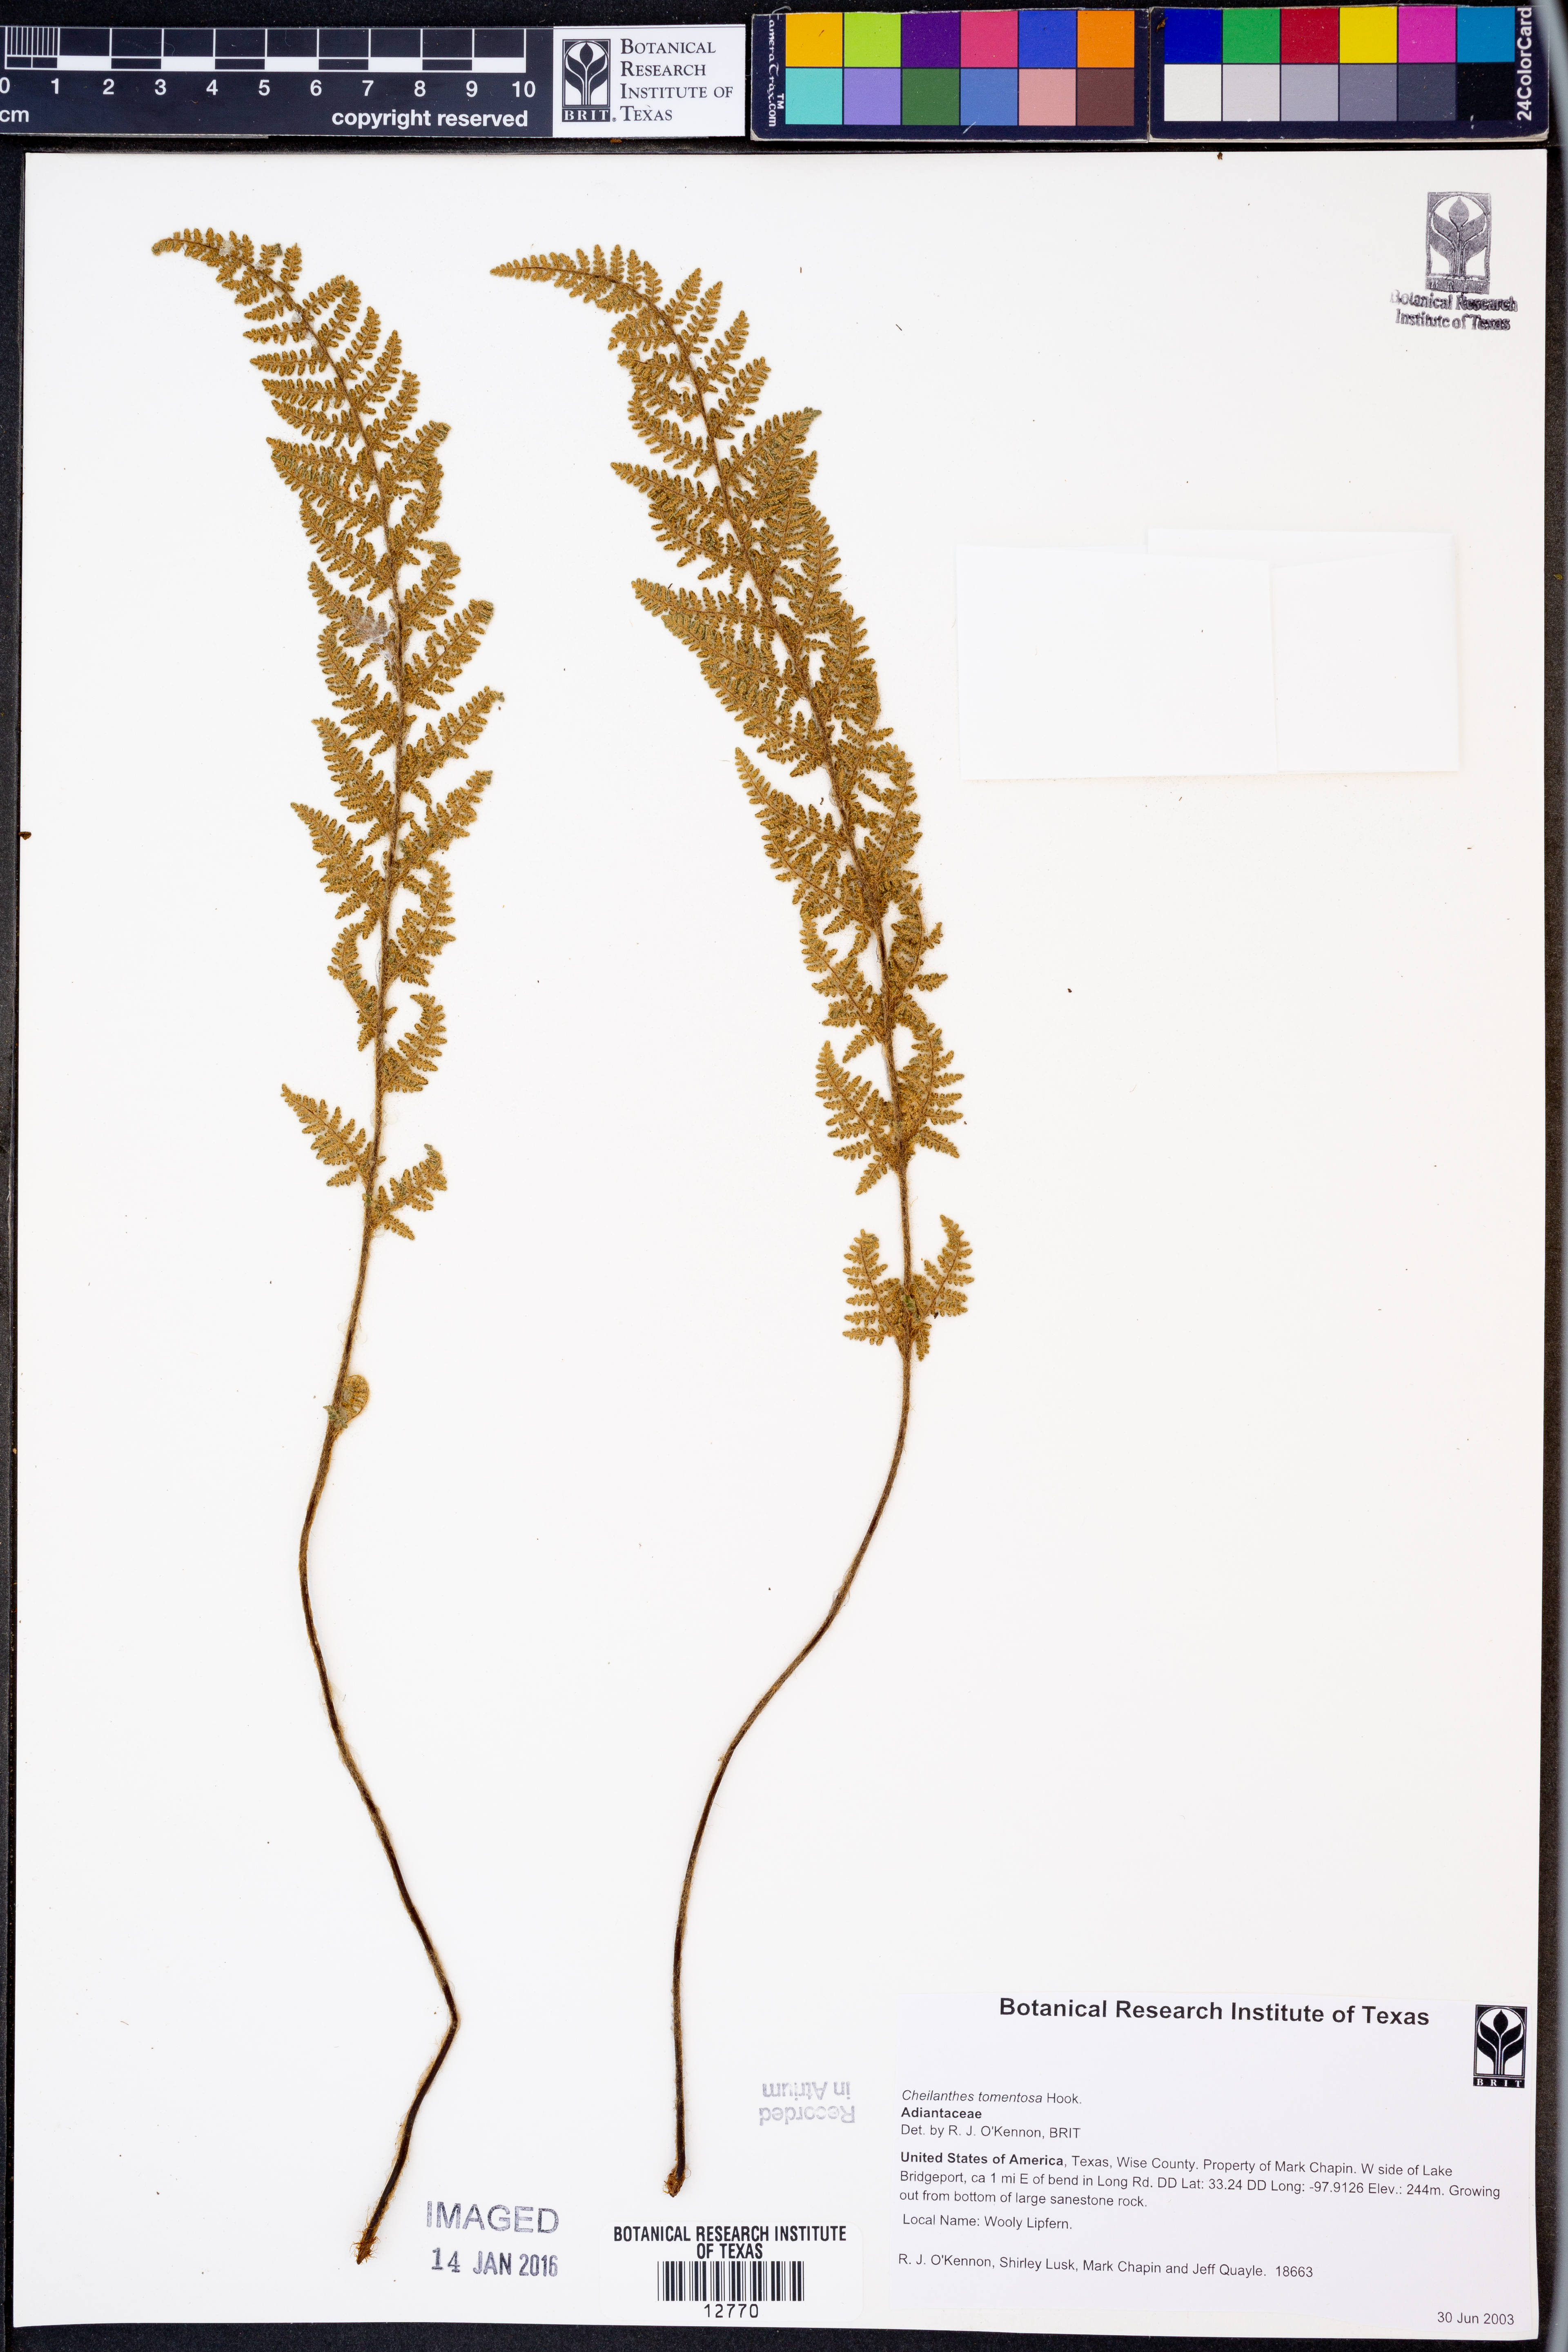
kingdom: Plantae
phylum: Tracheophyta
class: Polypodiopsida
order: Polypodiales
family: Pteridaceae
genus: Myriopteris
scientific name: Myriopteris tomentosa
